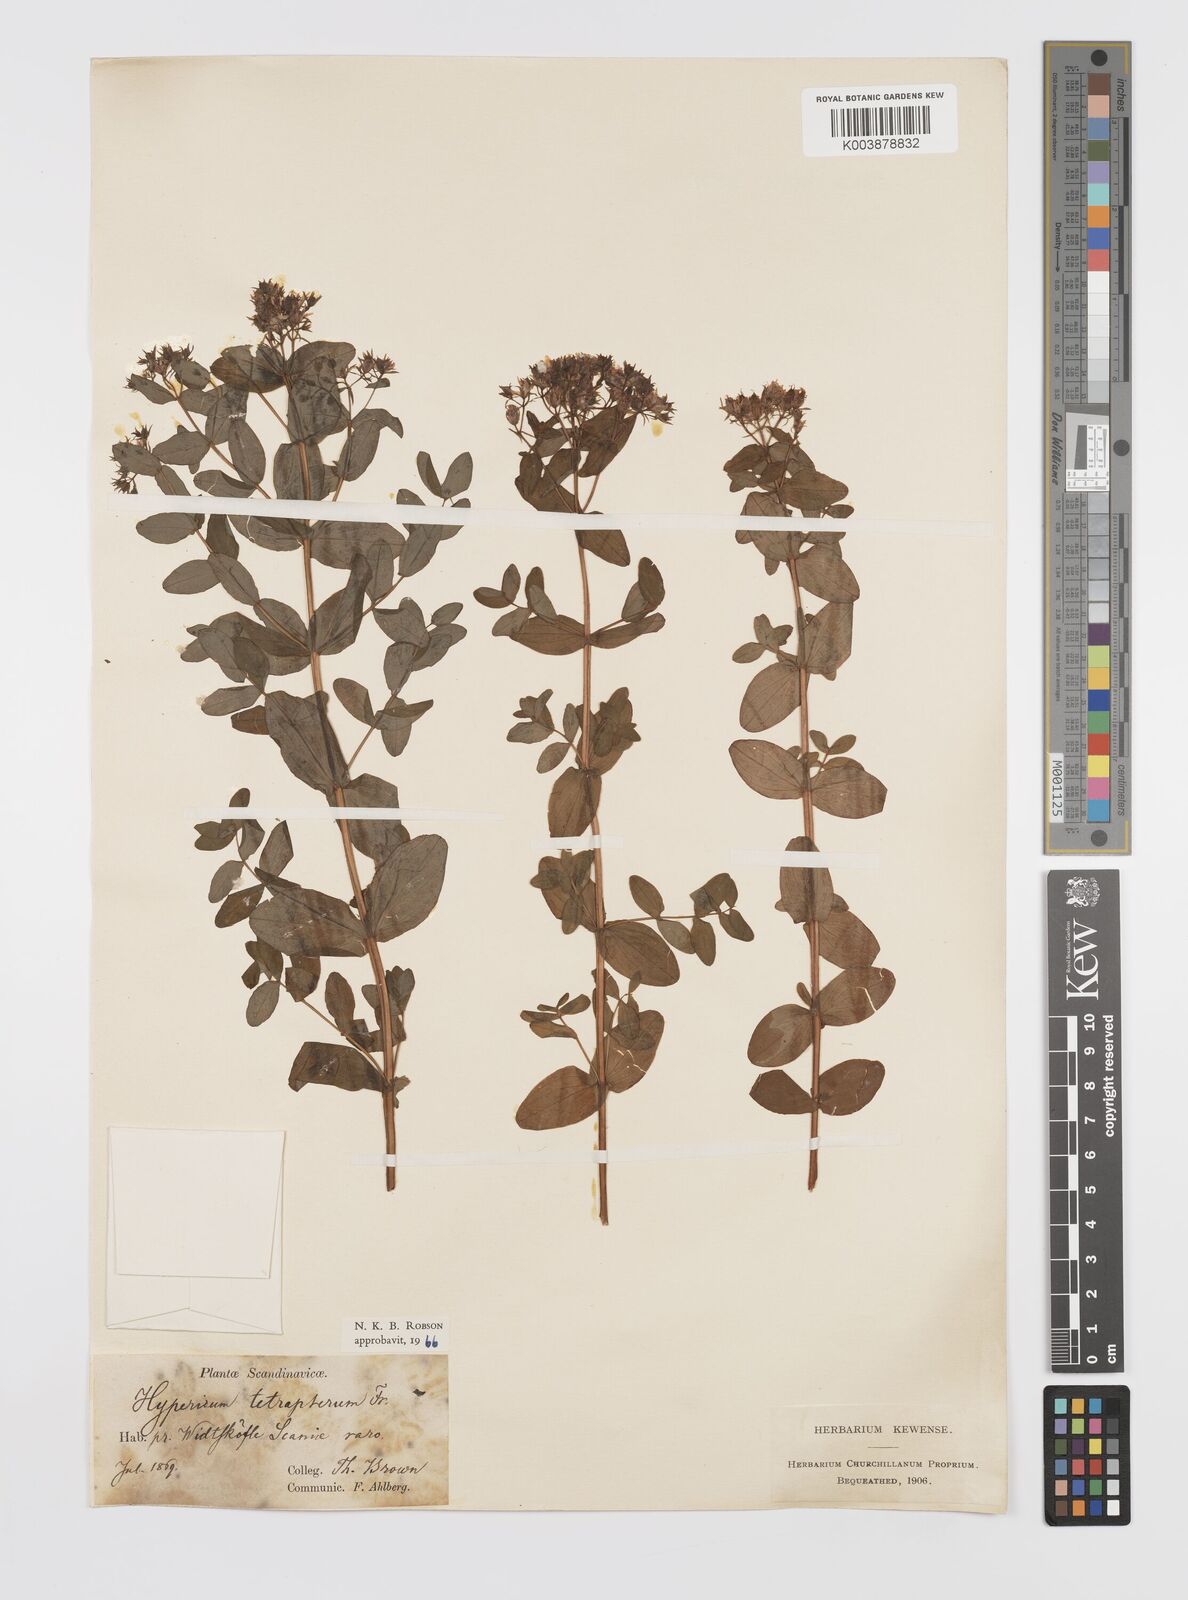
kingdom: Plantae
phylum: Tracheophyta
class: Magnoliopsida
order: Malpighiales
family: Hypericaceae
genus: Hypericum
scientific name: Hypericum tetrapterum
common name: Square-stalked st. john's-wort
